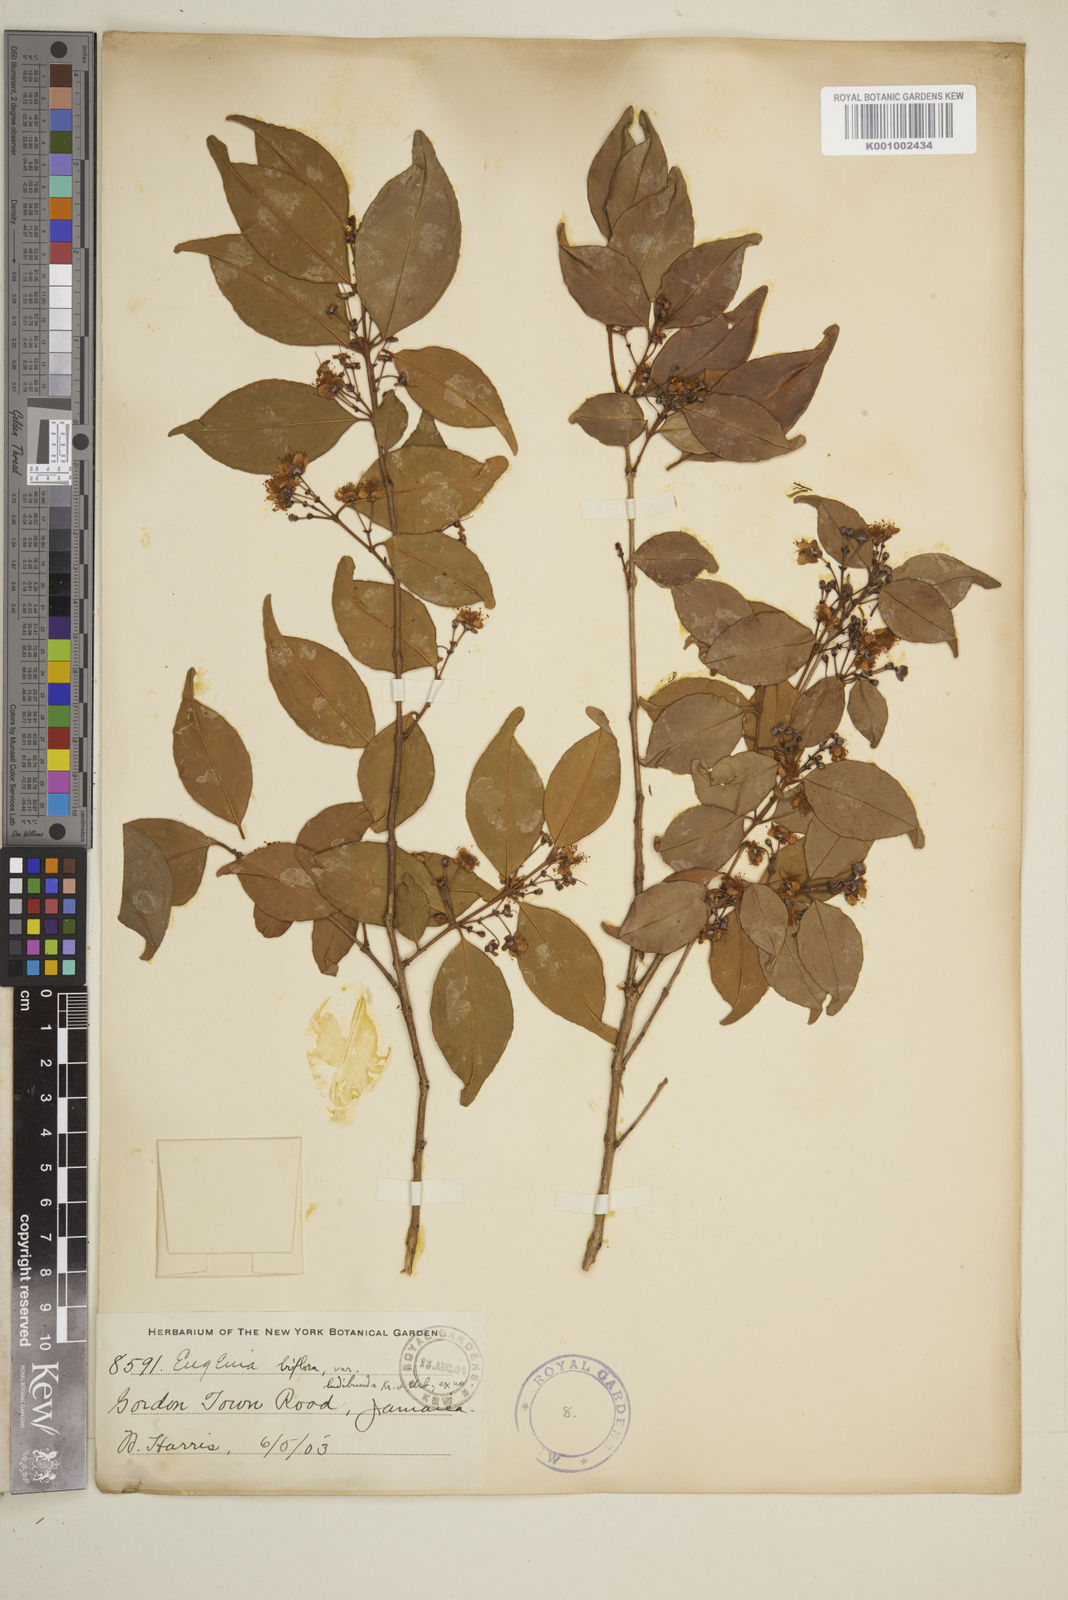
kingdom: Plantae
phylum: Tracheophyta
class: Magnoliopsida
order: Myrtales
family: Myrtaceae
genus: Eugenia
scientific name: Eugenia biflora
